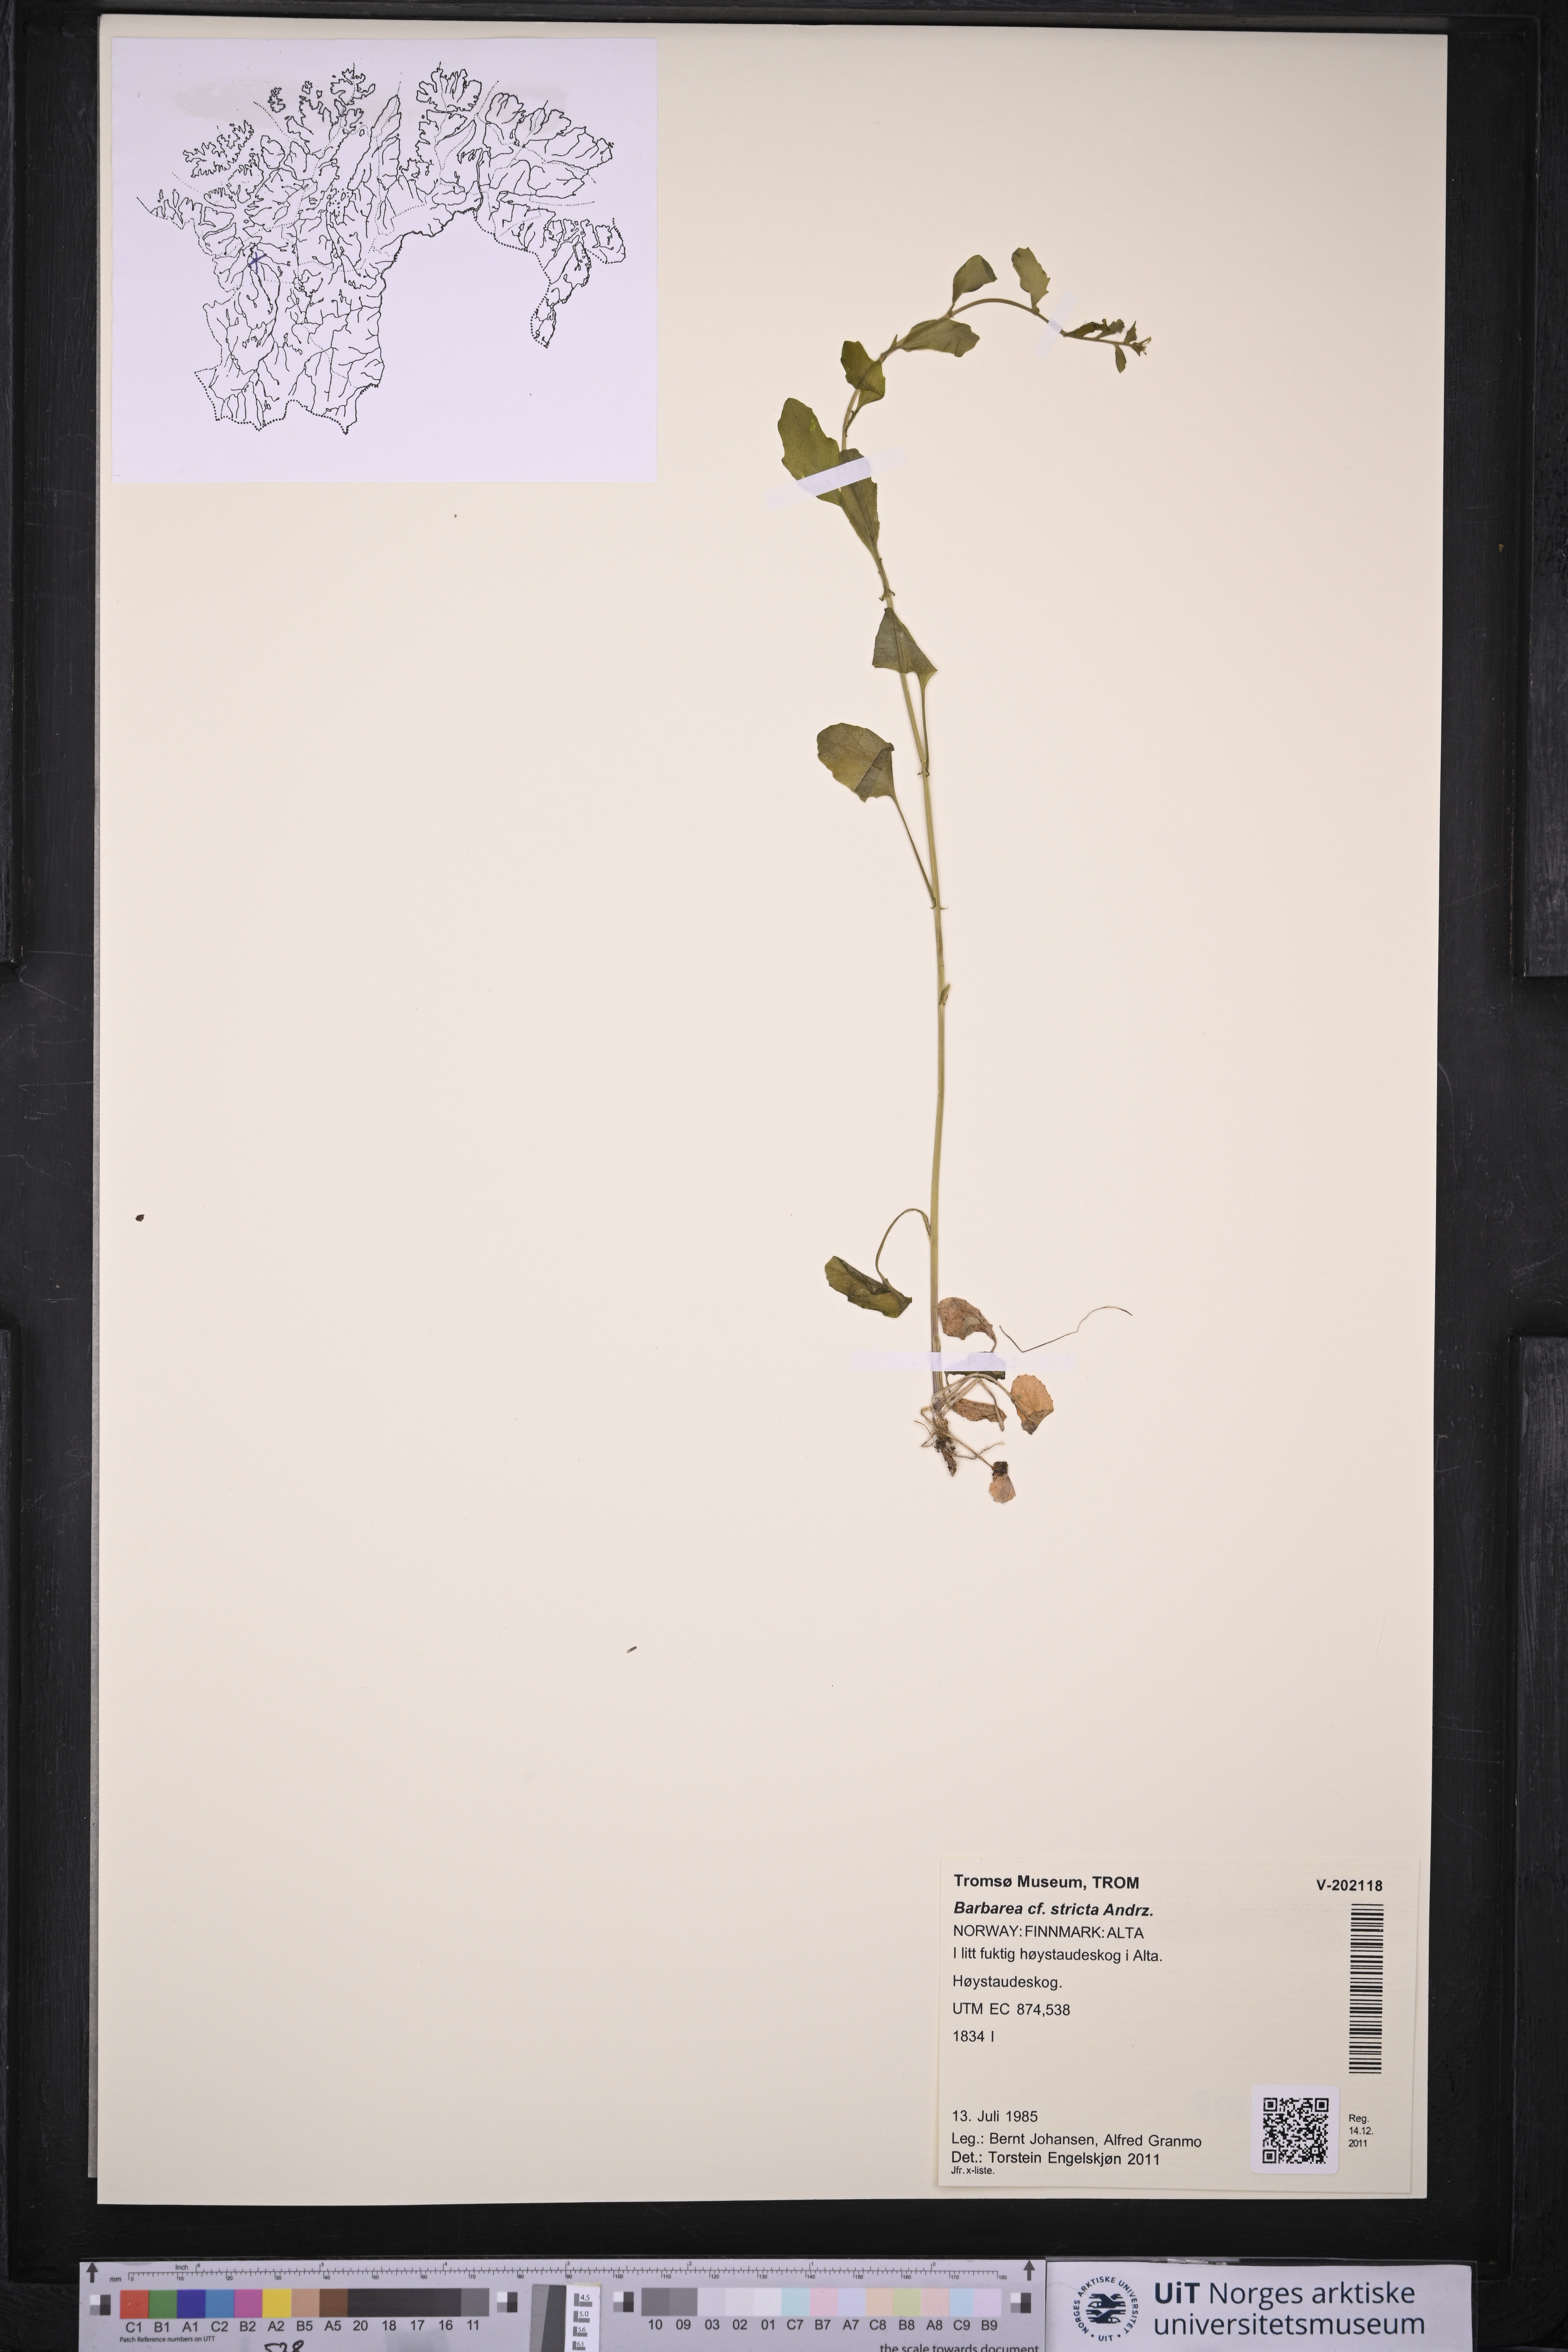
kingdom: Plantae
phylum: Tracheophyta
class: Magnoliopsida
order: Brassicales
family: Brassicaceae
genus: Barbarea
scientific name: Barbarea stricta
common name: Small-flowered winter-cress
